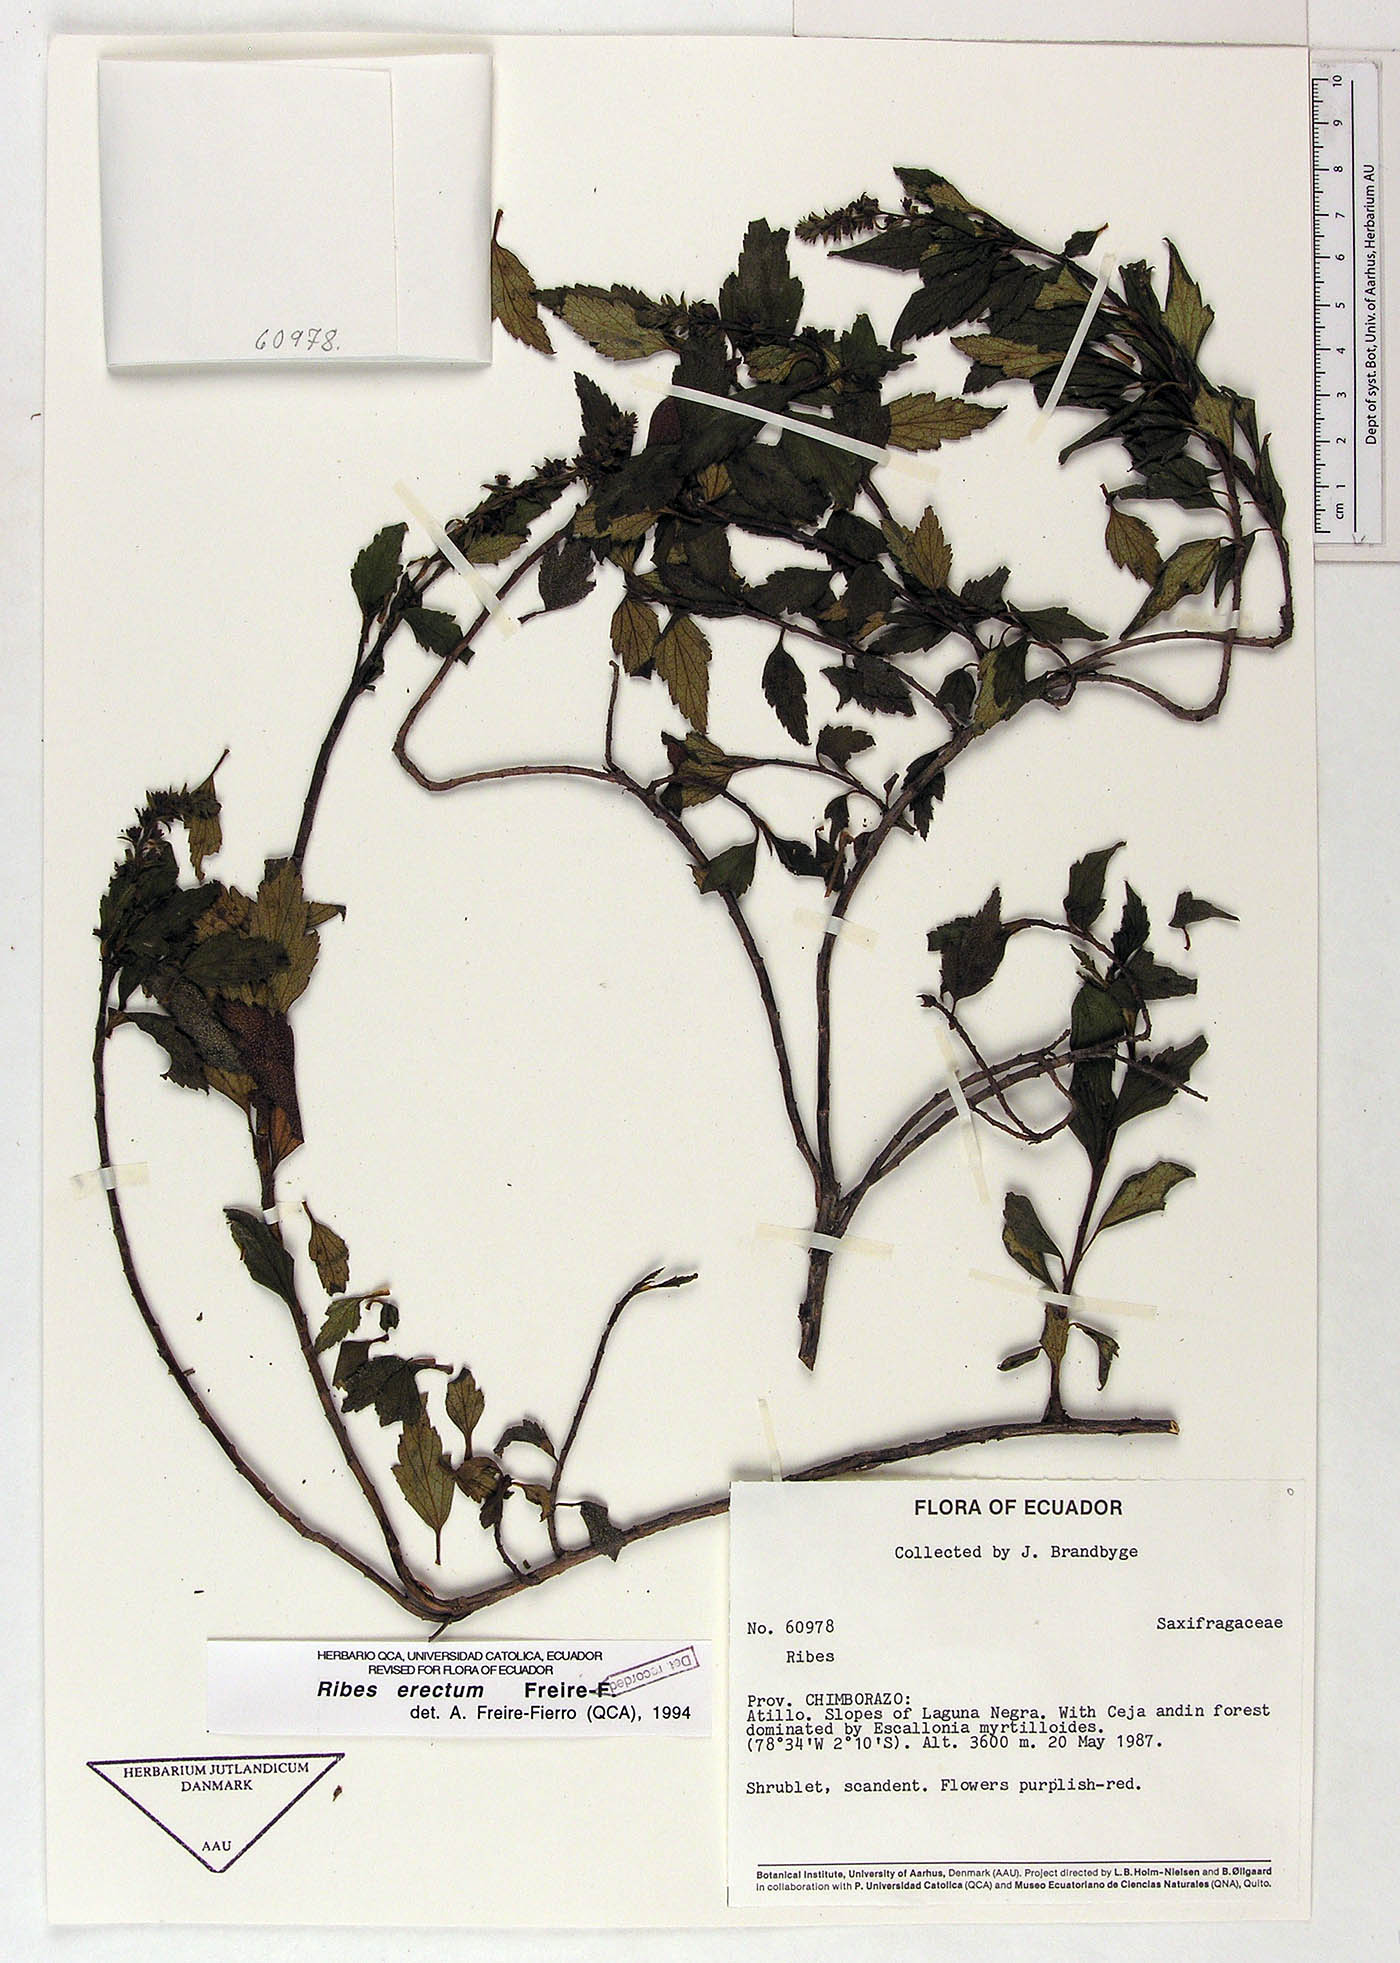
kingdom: Plantae
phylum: Tracheophyta
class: Magnoliopsida
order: Saxifragales
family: Grossulariaceae
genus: Ribes
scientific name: Ribes erectum
